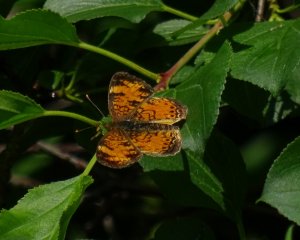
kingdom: Animalia
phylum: Arthropoda
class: Insecta
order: Lepidoptera
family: Nymphalidae
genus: Phyciodes
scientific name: Phyciodes tharos
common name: Northern Crescent
